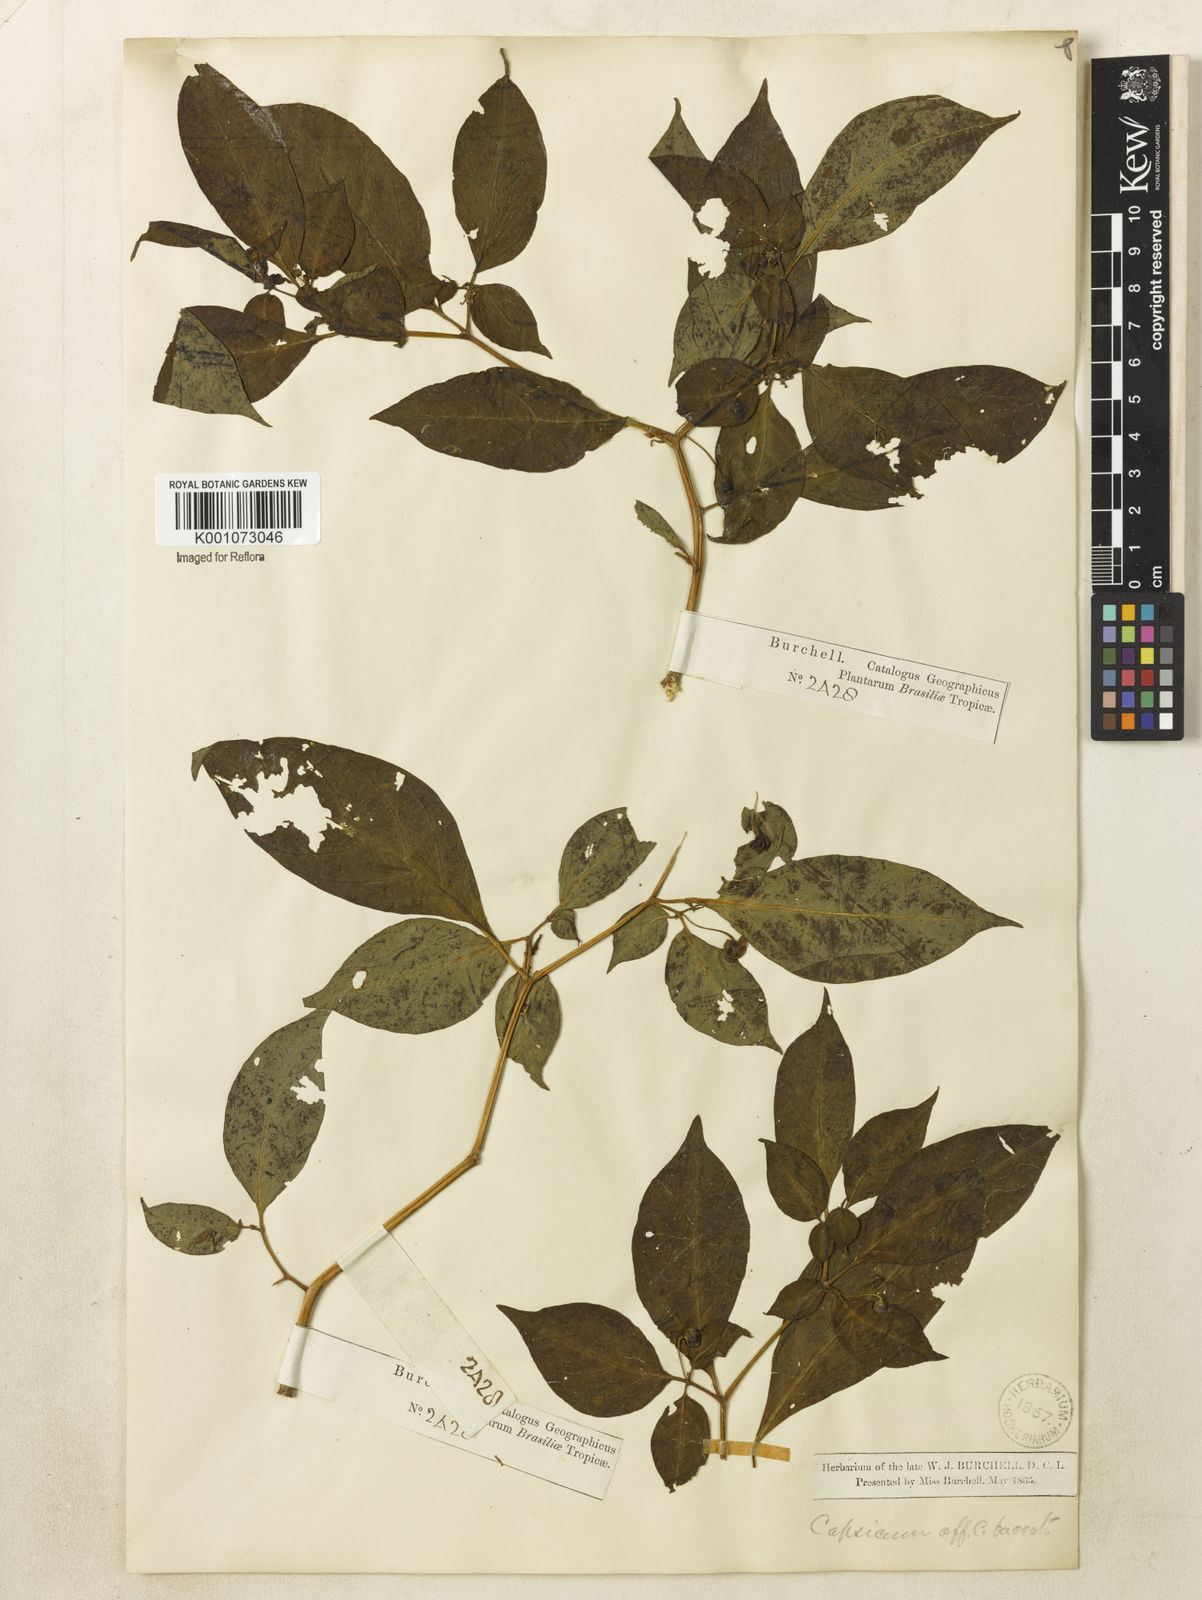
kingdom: Plantae
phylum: Tracheophyta
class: Magnoliopsida
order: Solanales
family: Solanaceae
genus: Capsicum
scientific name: Capsicum
